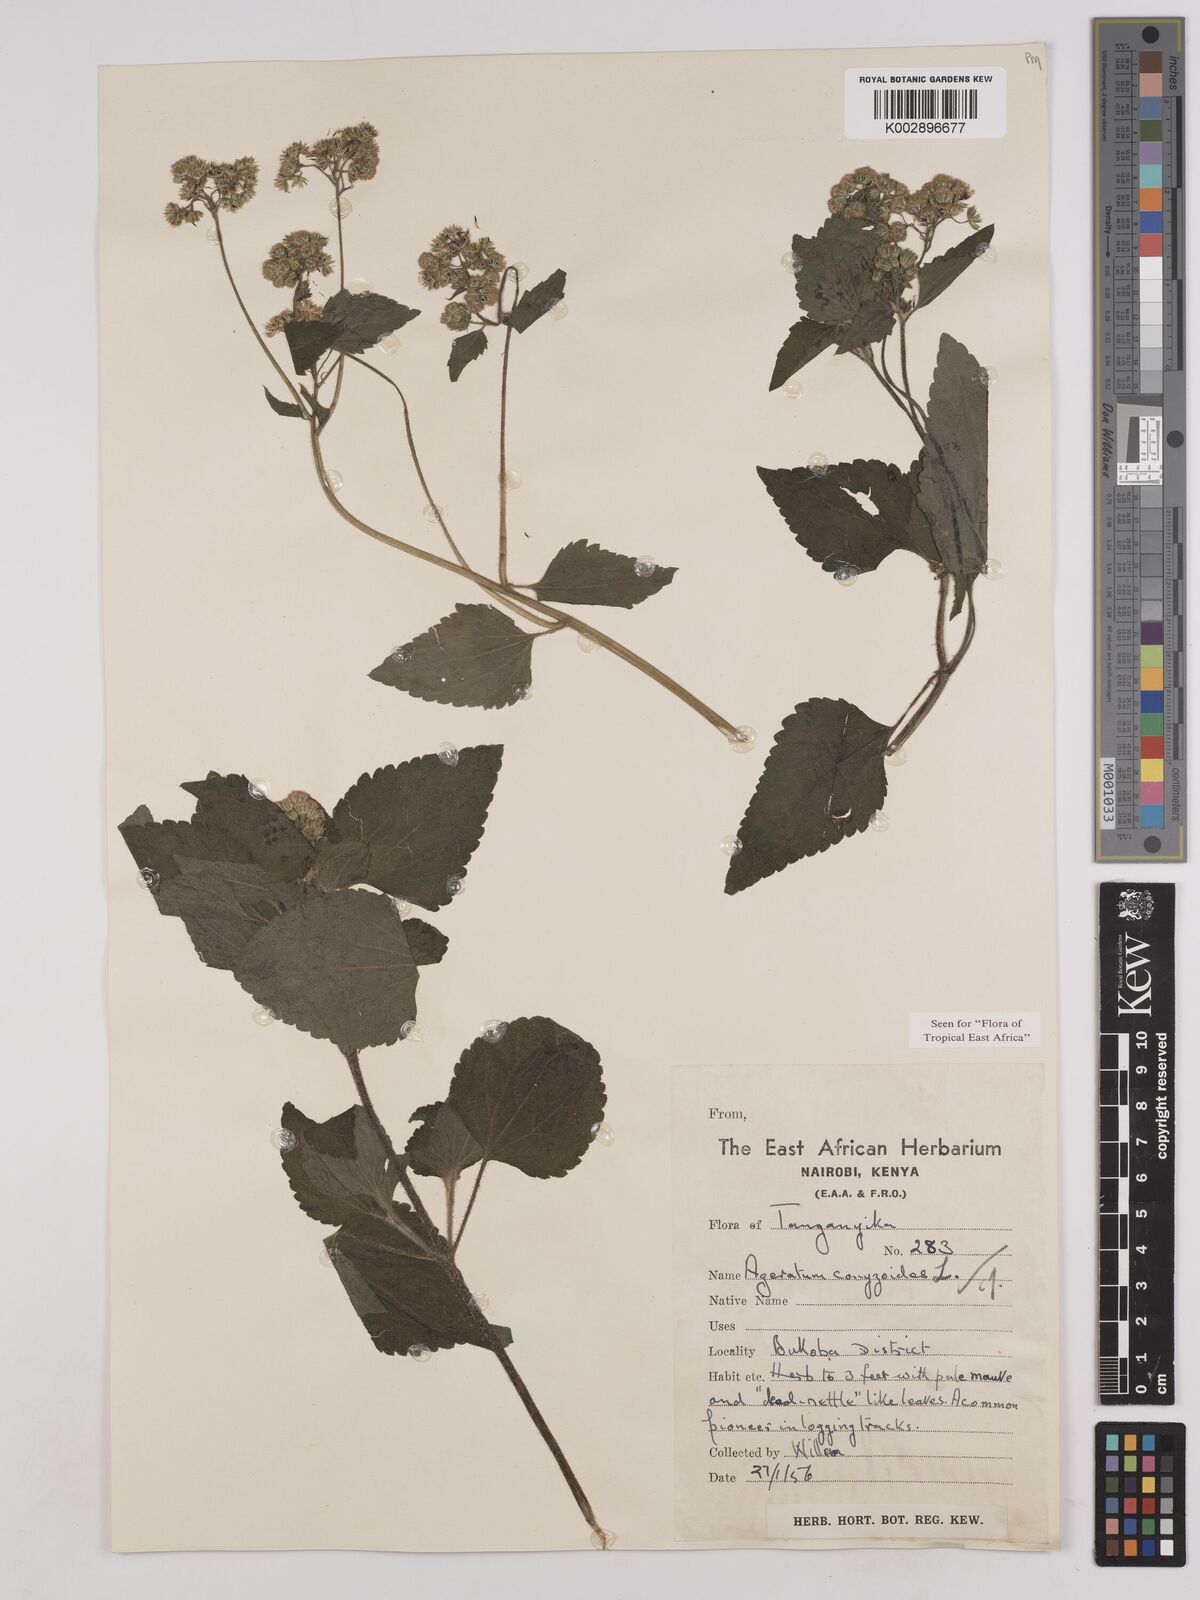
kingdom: Plantae
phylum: Tracheophyta
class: Magnoliopsida
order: Asterales
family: Asteraceae
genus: Ageratum
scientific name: Ageratum conyzoides
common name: Tropical whiteweed
